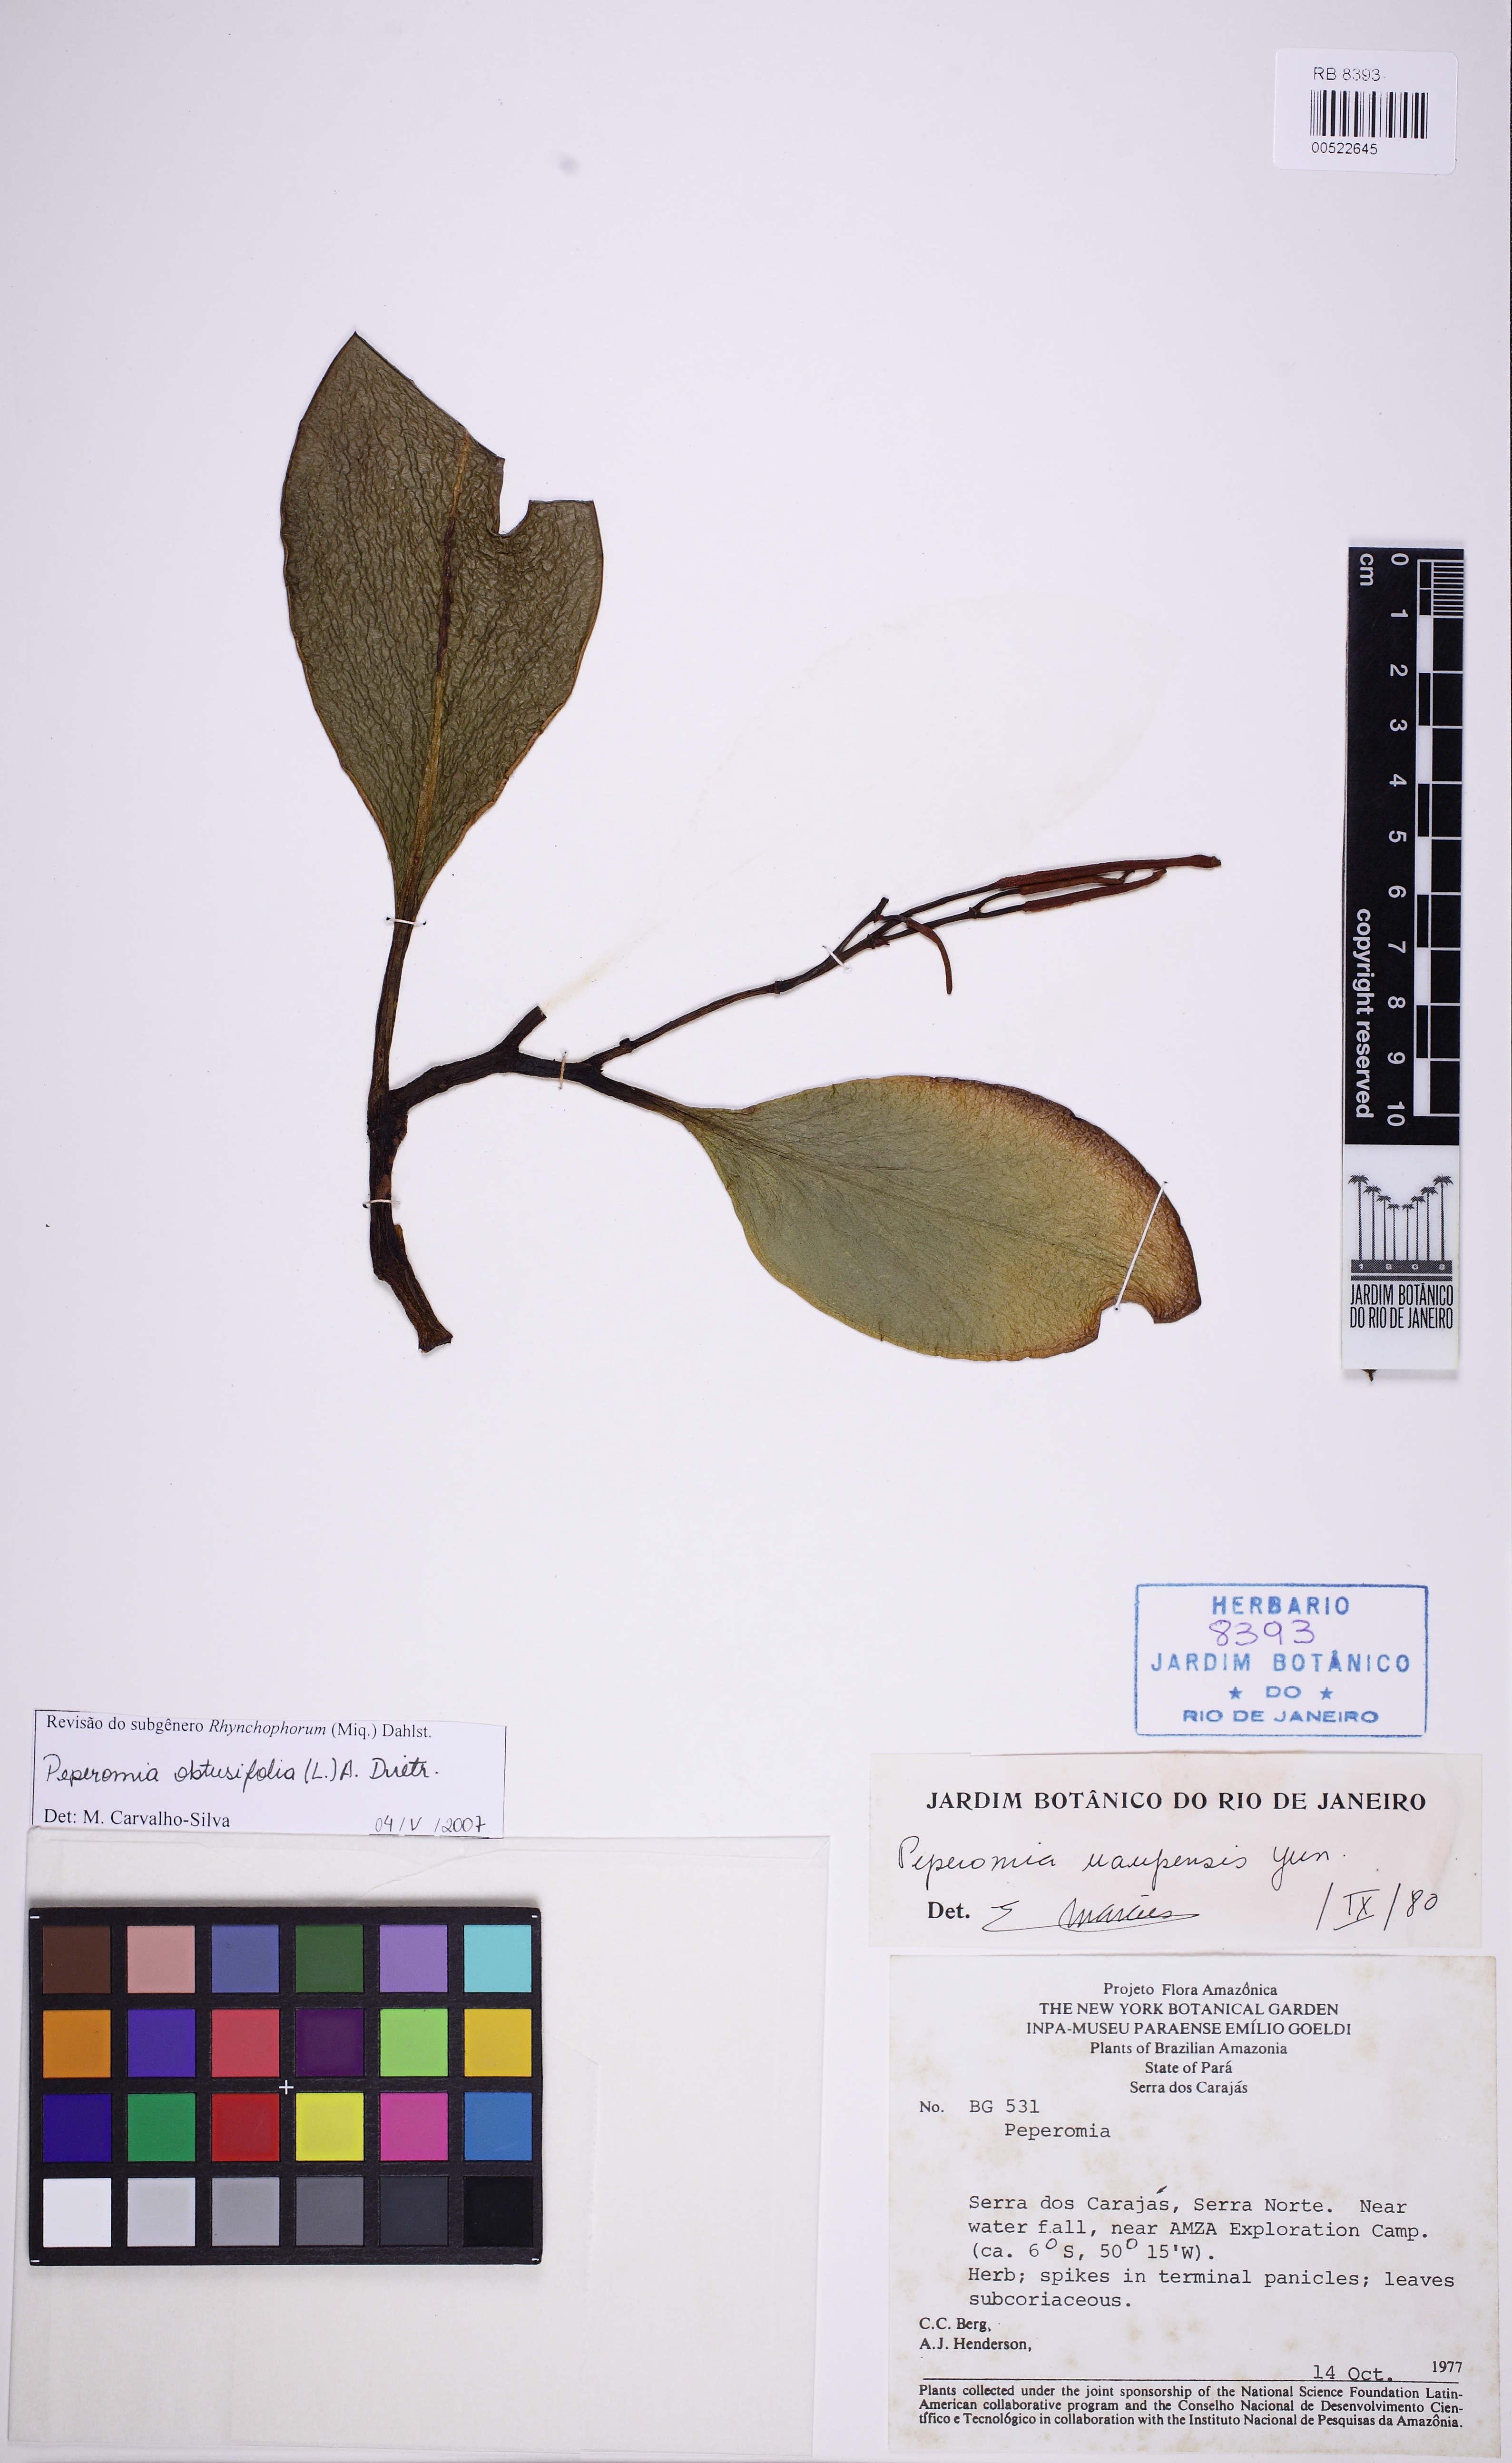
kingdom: Plantae
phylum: Tracheophyta
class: Magnoliopsida
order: Piperales
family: Piperaceae
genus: Peperomia
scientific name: Peperomia uaupesensis
